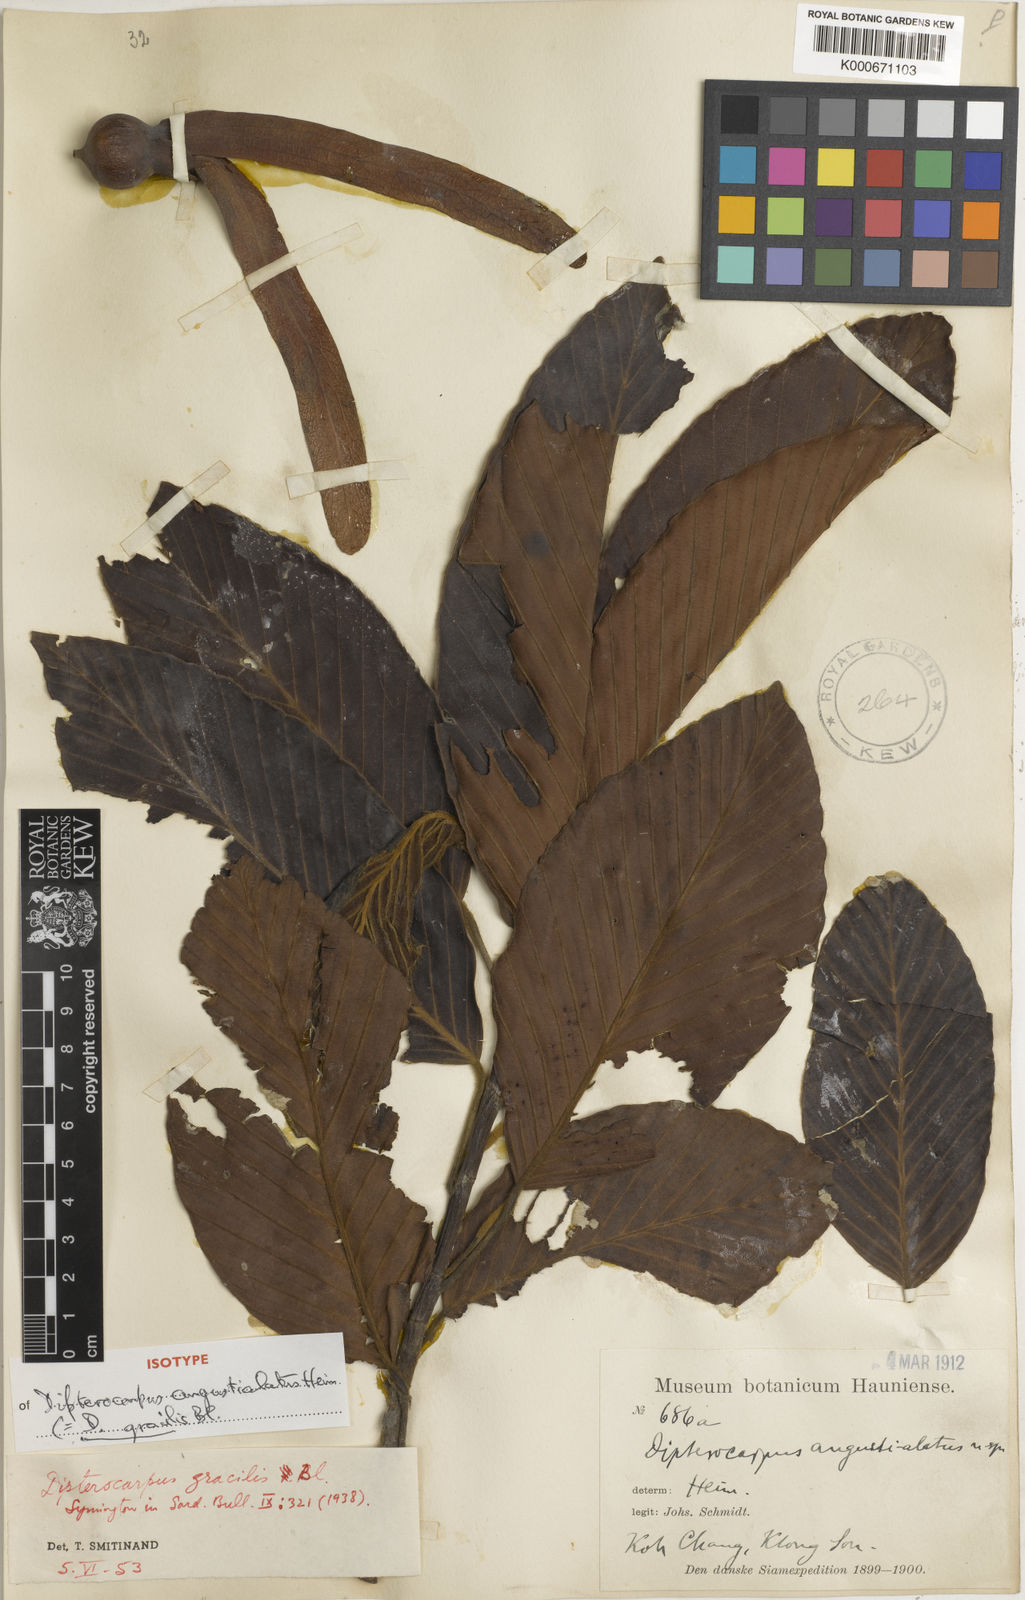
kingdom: Plantae
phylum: Tracheophyta
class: Magnoliopsida
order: Malvales
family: Dipterocarpaceae
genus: Dipterocarpus
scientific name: Dipterocarpus gracilis
